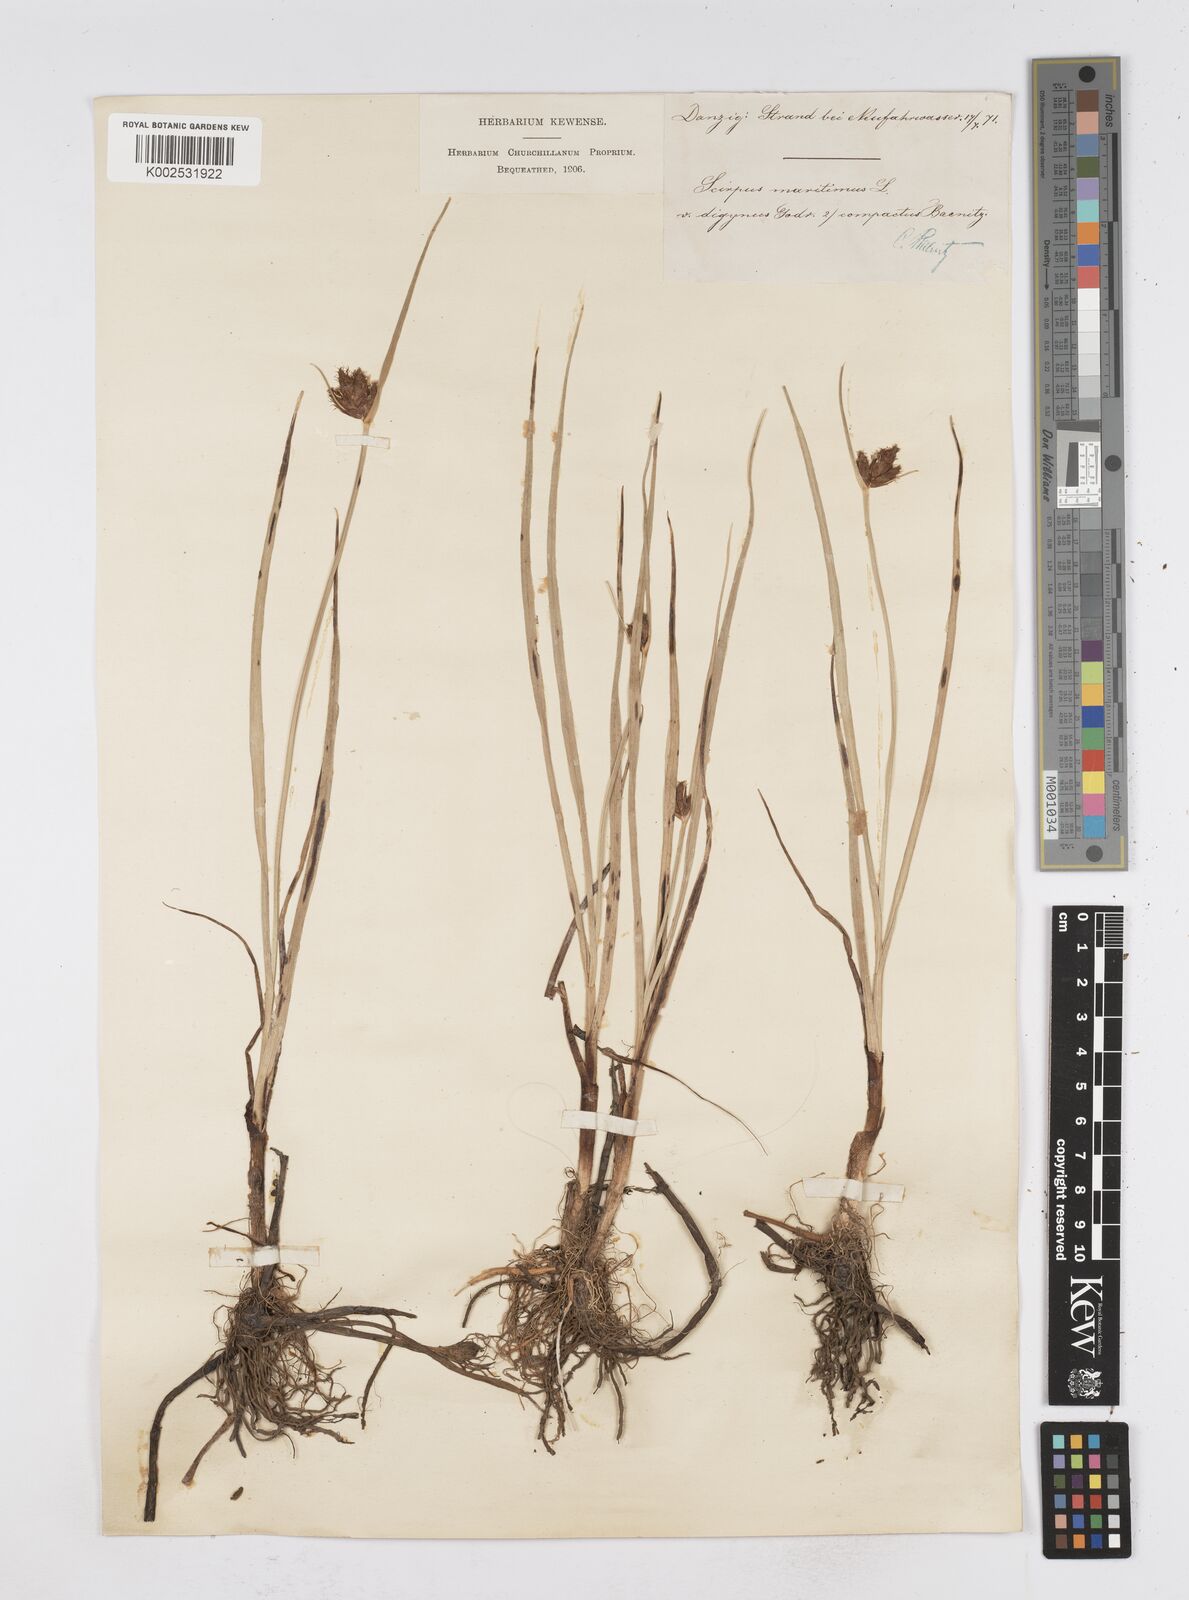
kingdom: Plantae
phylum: Tracheophyta
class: Liliopsida
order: Poales
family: Cyperaceae
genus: Bolboschoenus
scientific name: Bolboschoenus maritimus
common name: Sea club-rush
